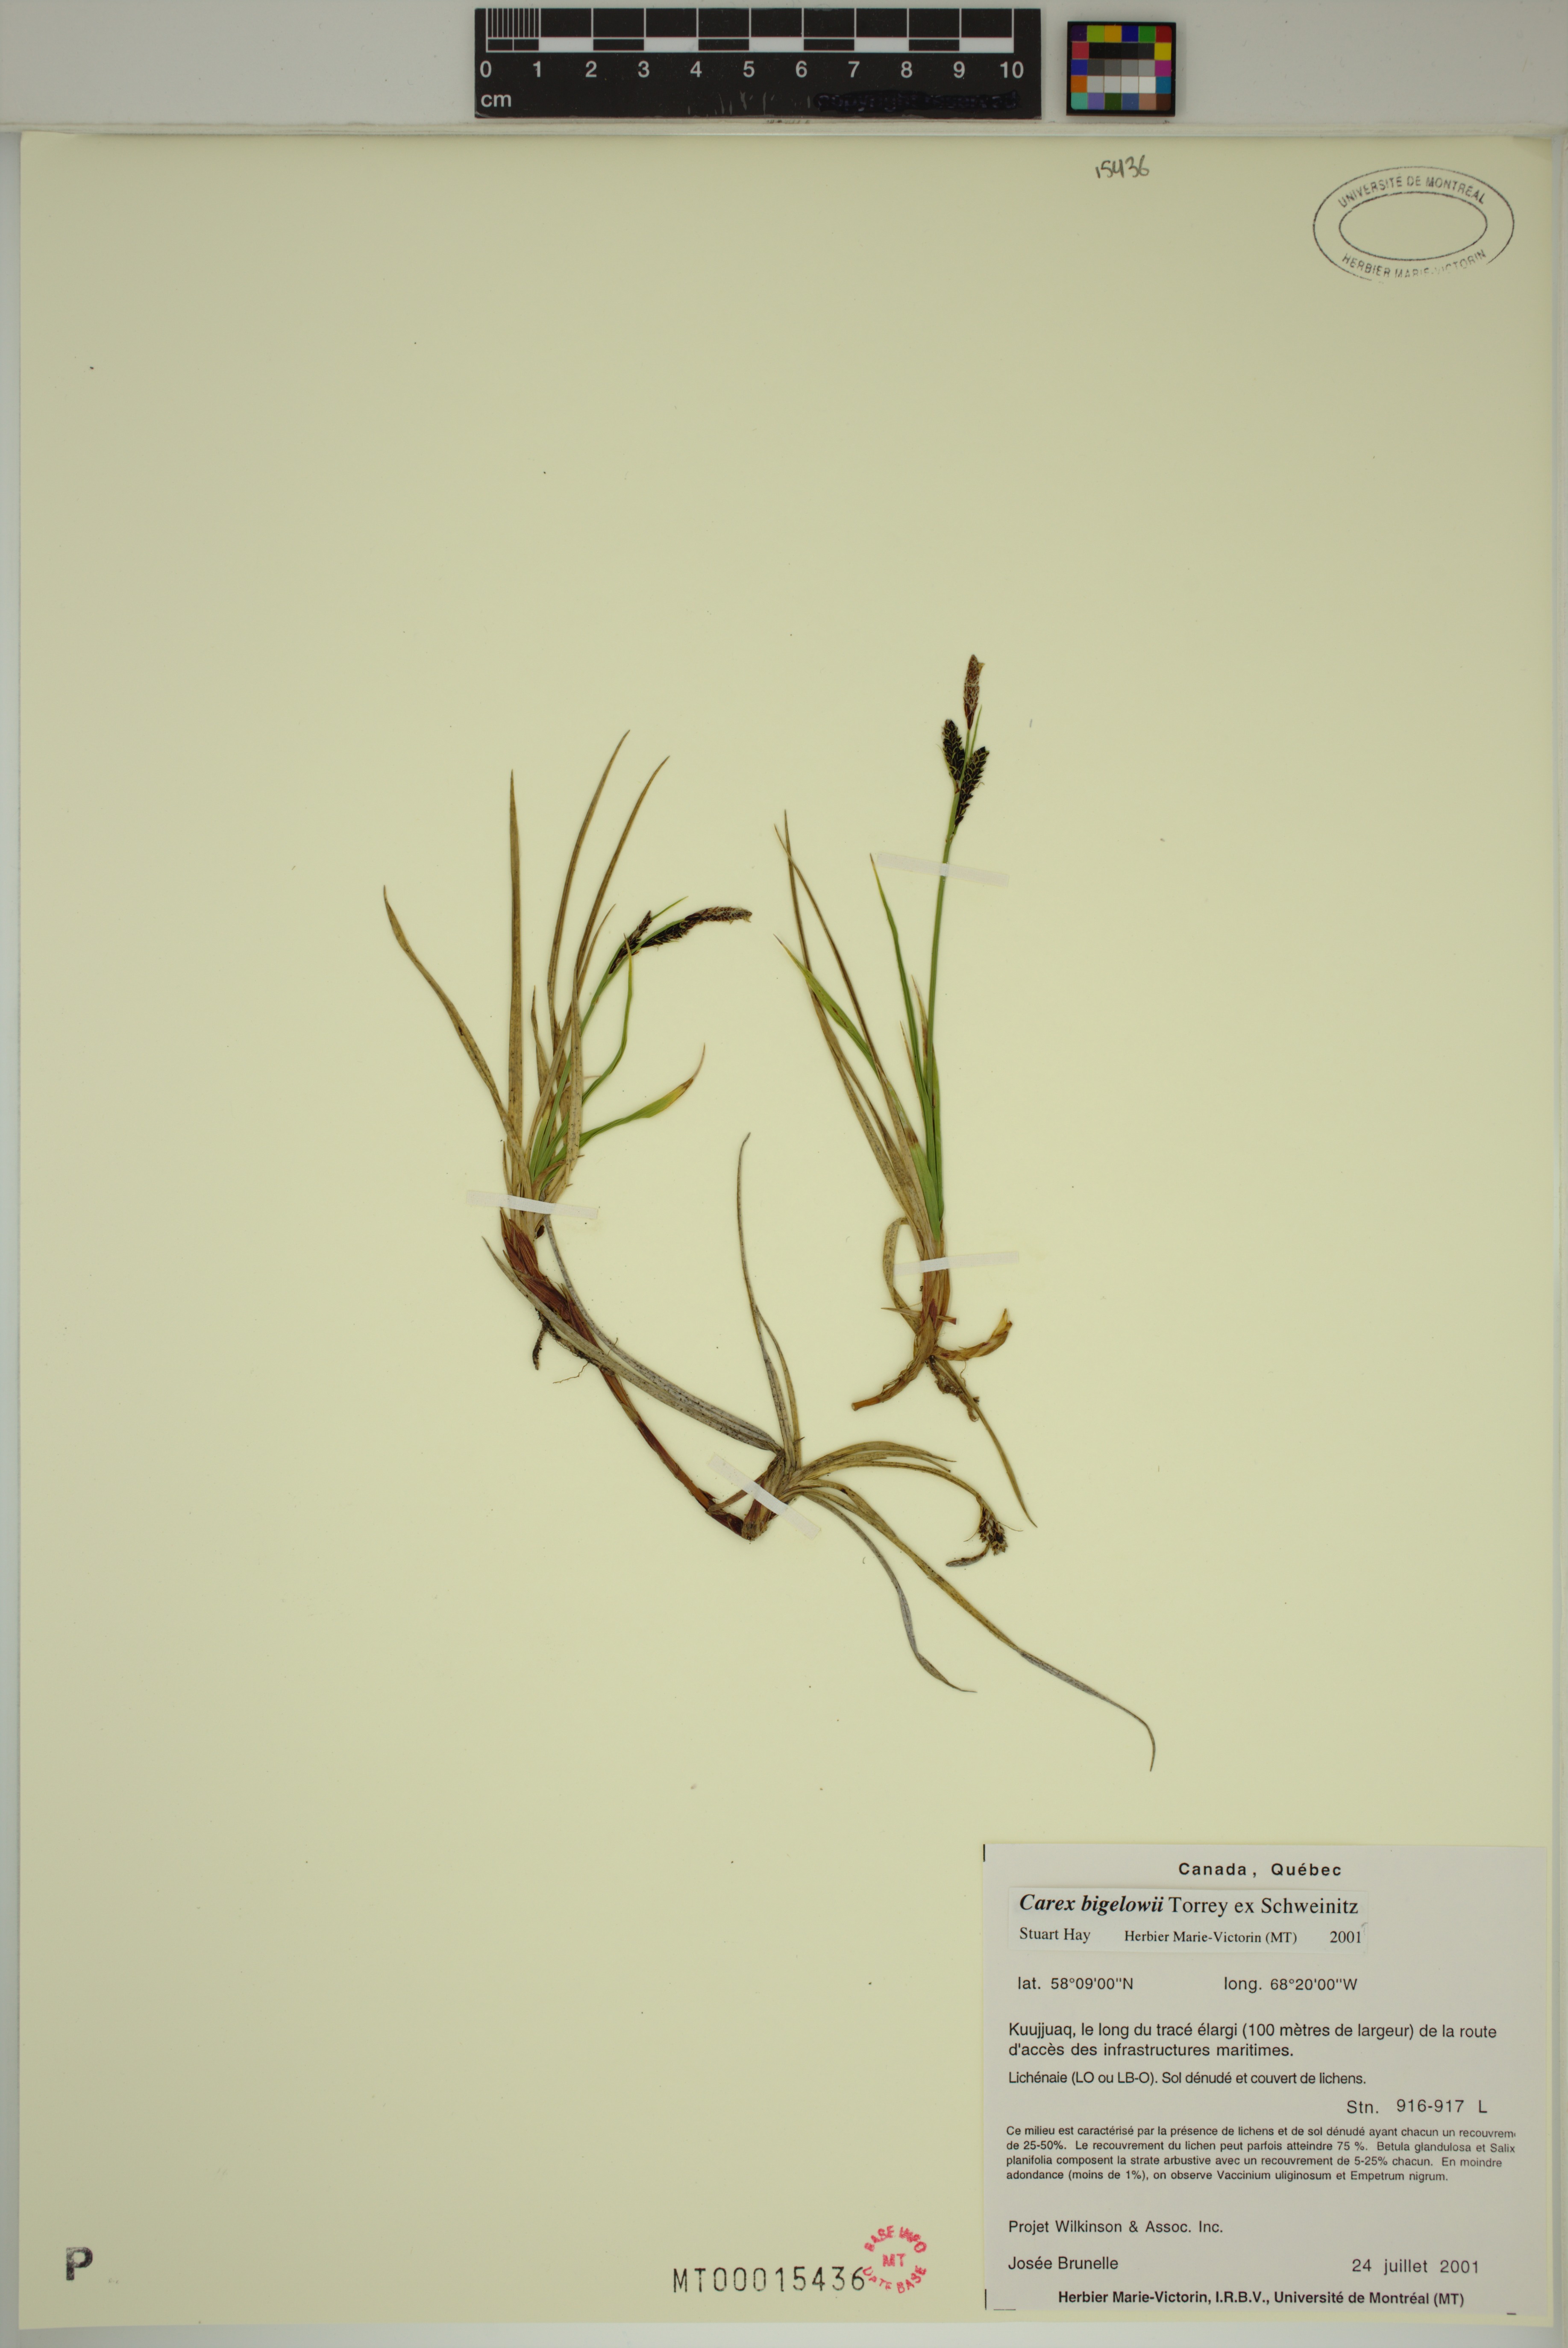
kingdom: Plantae
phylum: Tracheophyta
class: Liliopsida
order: Poales
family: Cyperaceae
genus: Carex
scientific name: Carex bigelowii
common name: Stiff sedge
